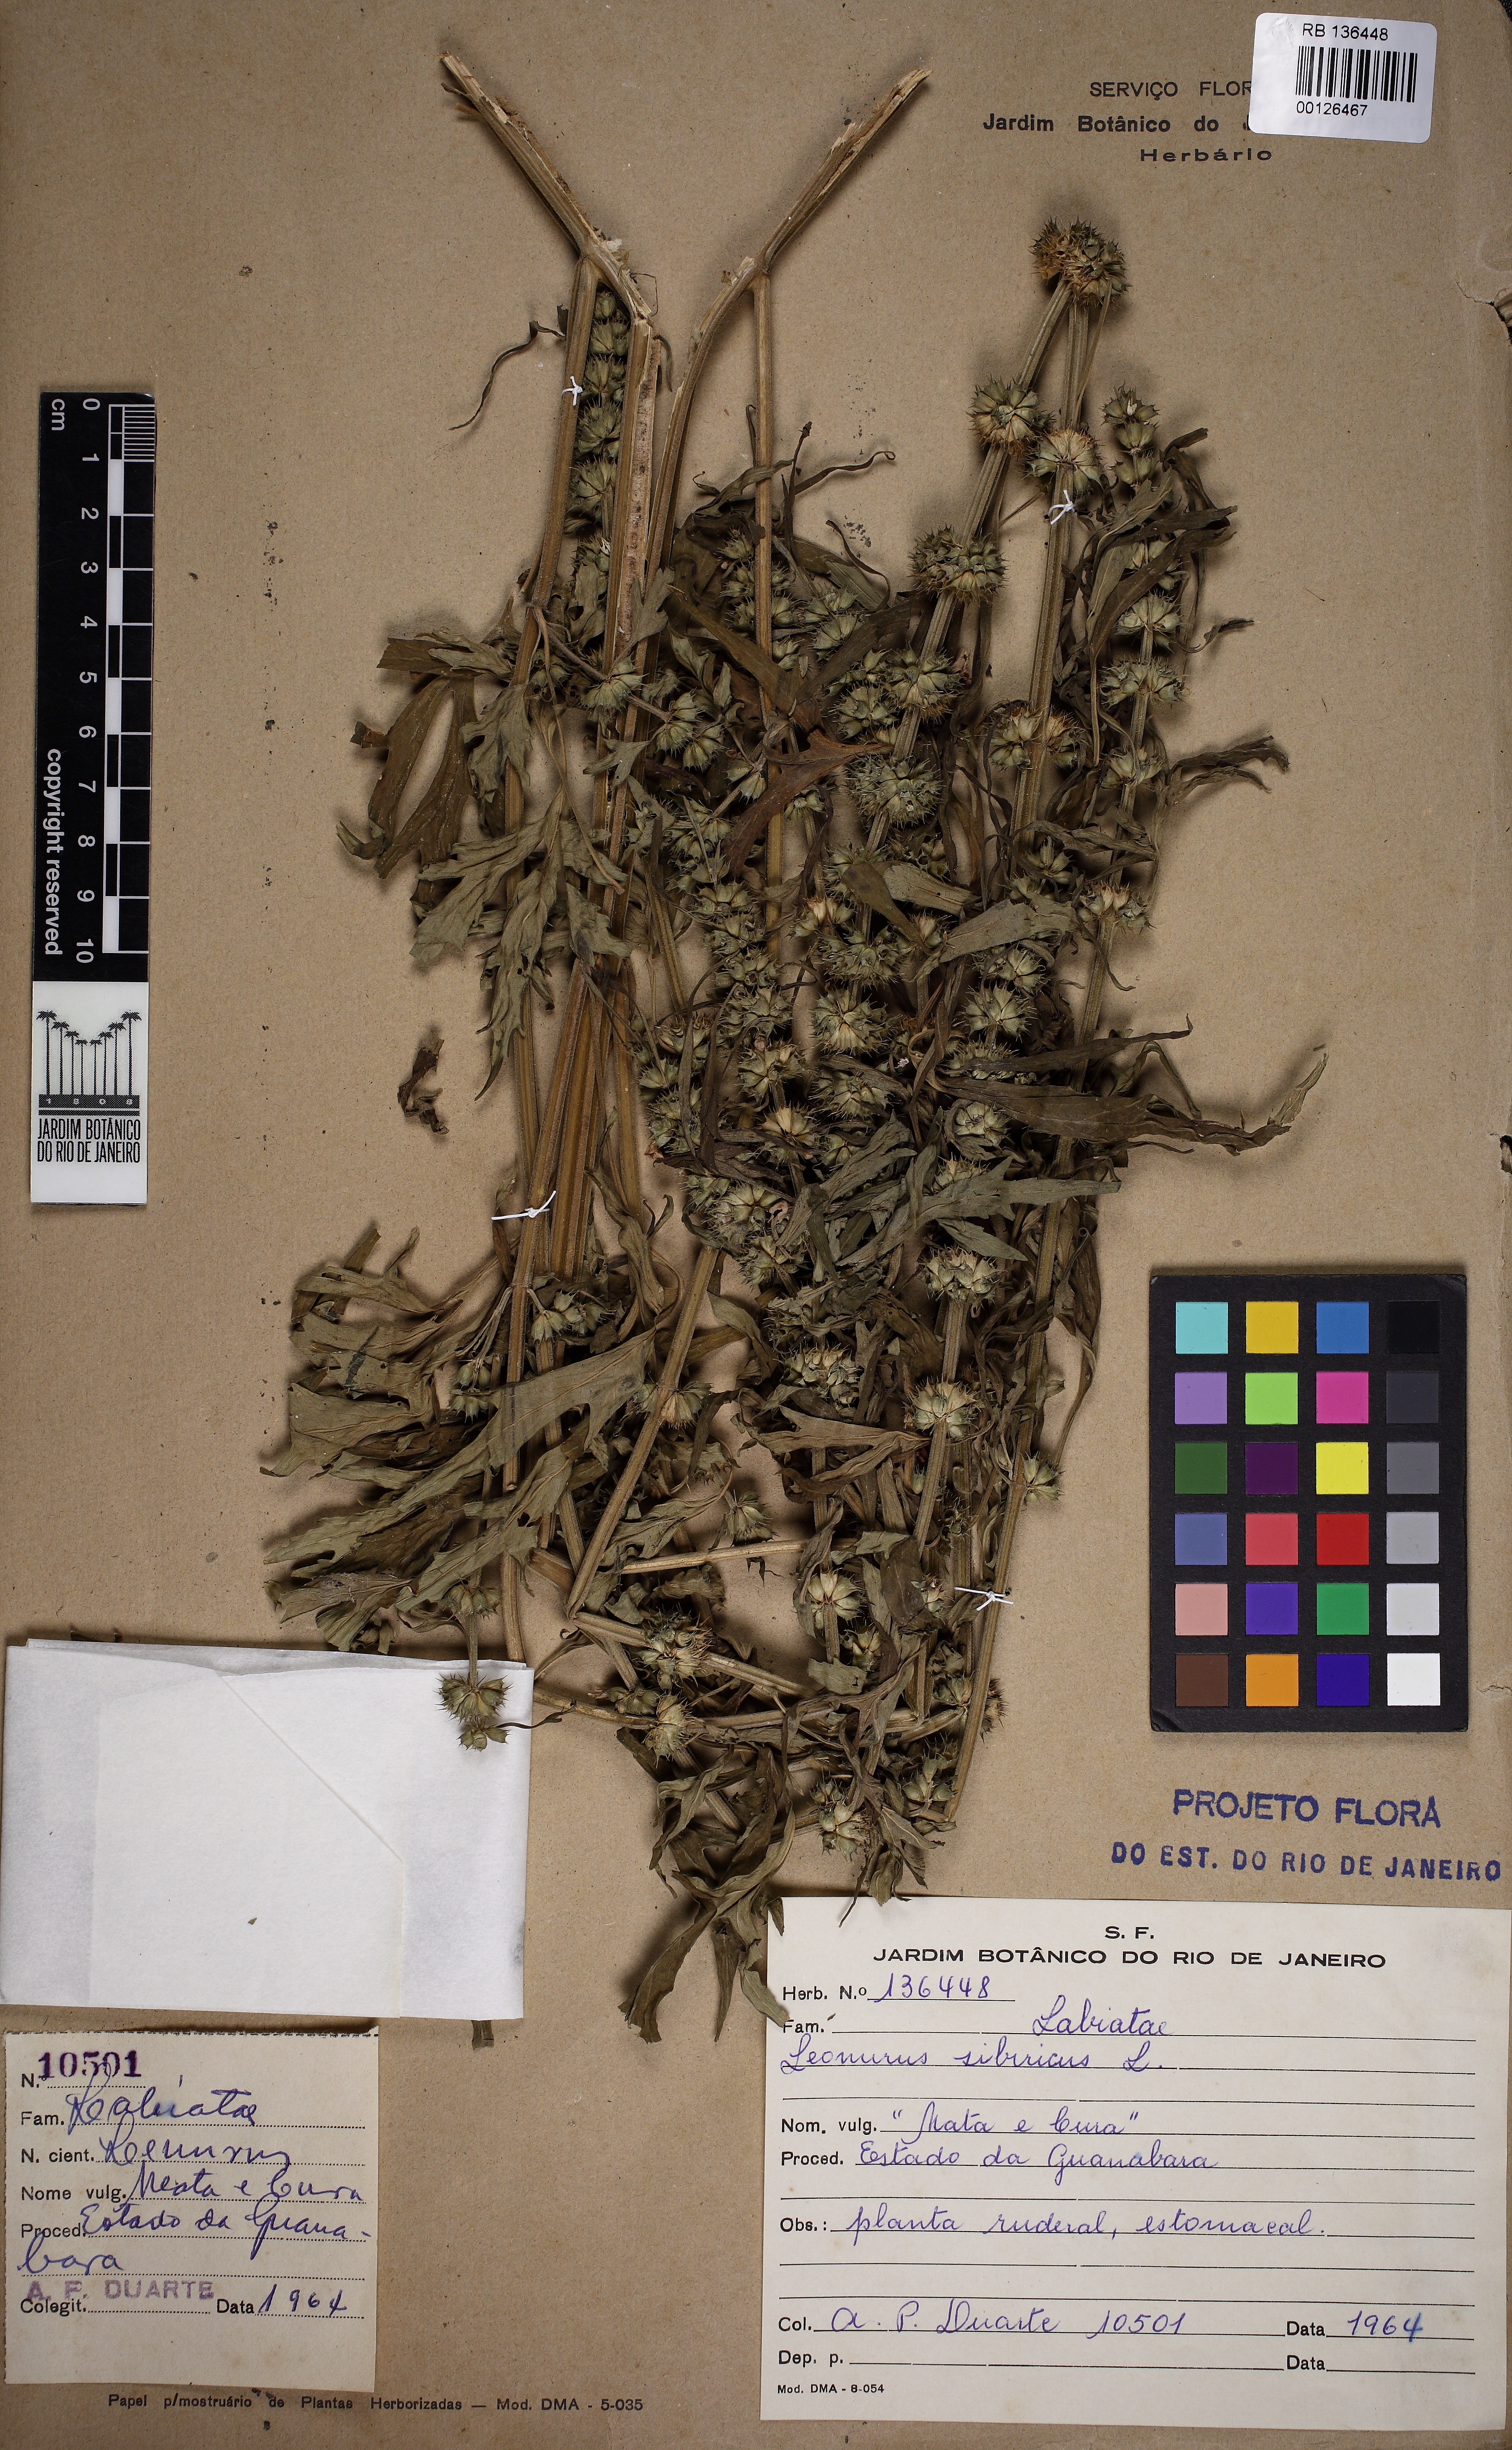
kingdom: Plantae
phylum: Tracheophyta
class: Magnoliopsida
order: Lamiales
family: Lamiaceae
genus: Leonurus
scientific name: Leonurus sibiricus
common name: Honeyweed
